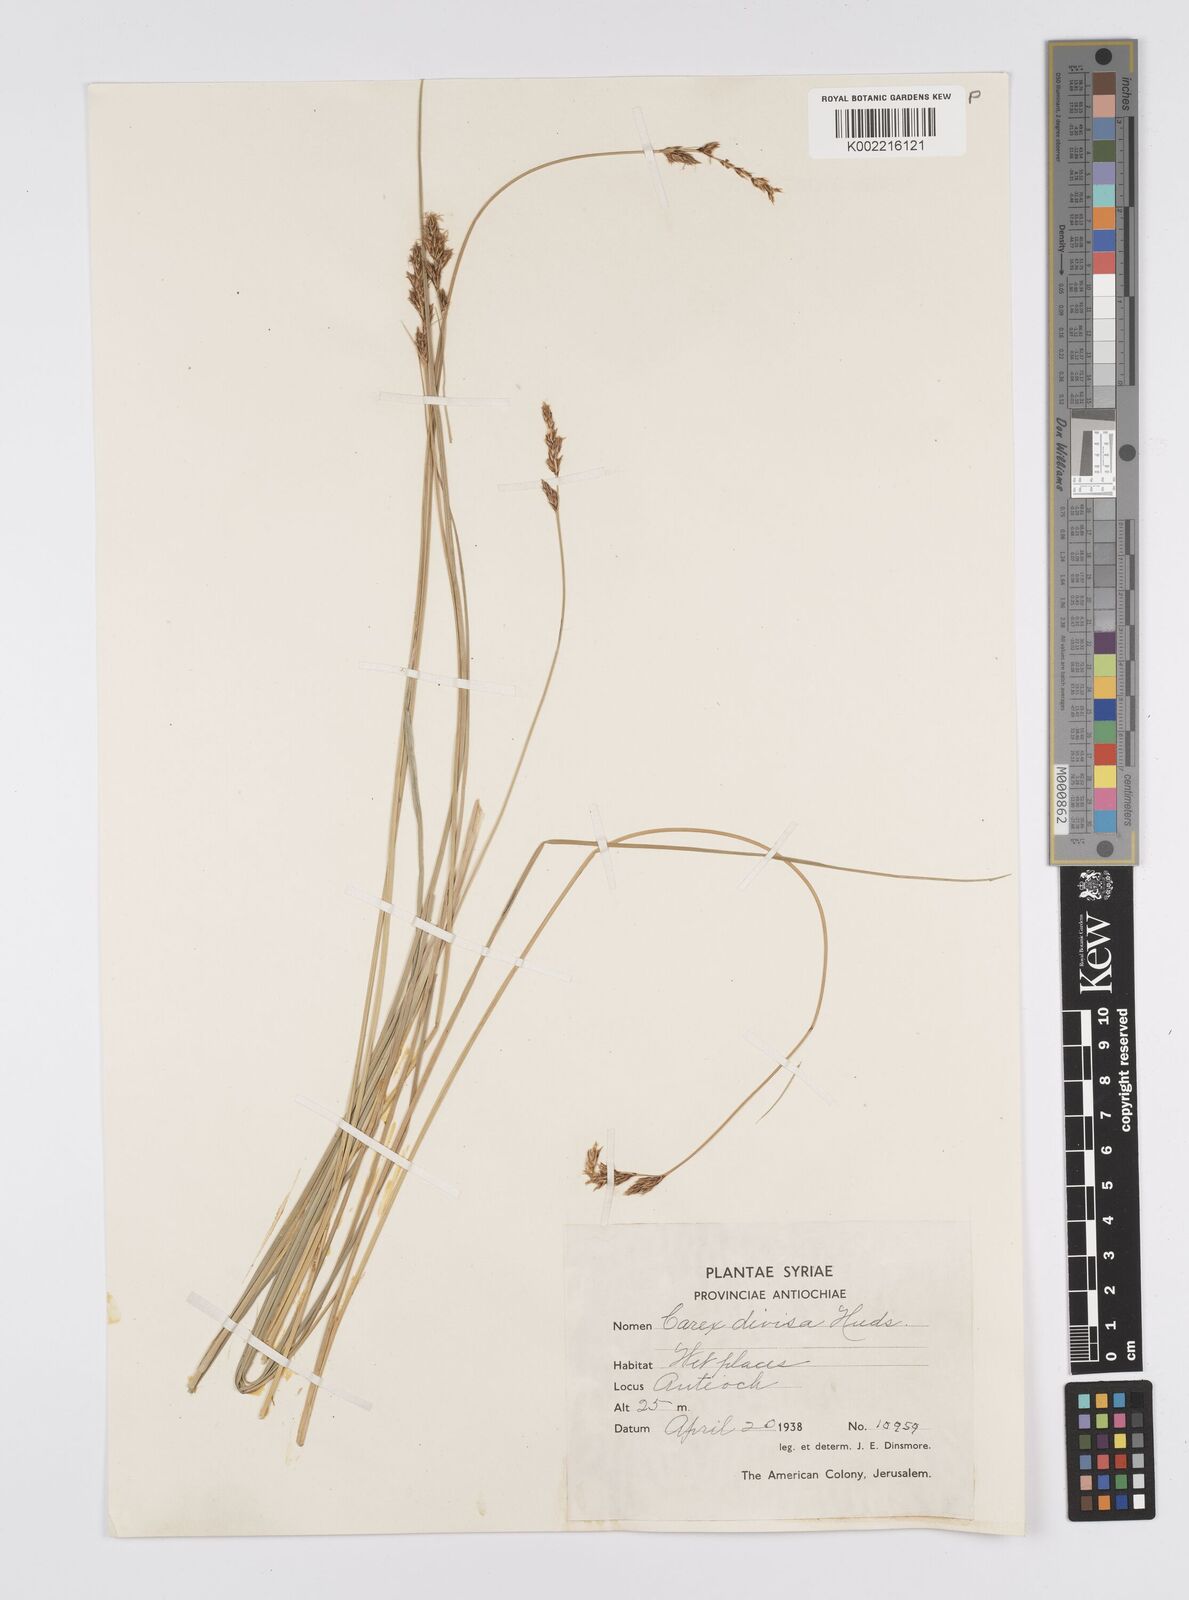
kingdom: Plantae
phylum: Tracheophyta
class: Liliopsida
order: Poales
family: Cyperaceae
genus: Carex
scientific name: Carex divisa
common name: Divided sedge
